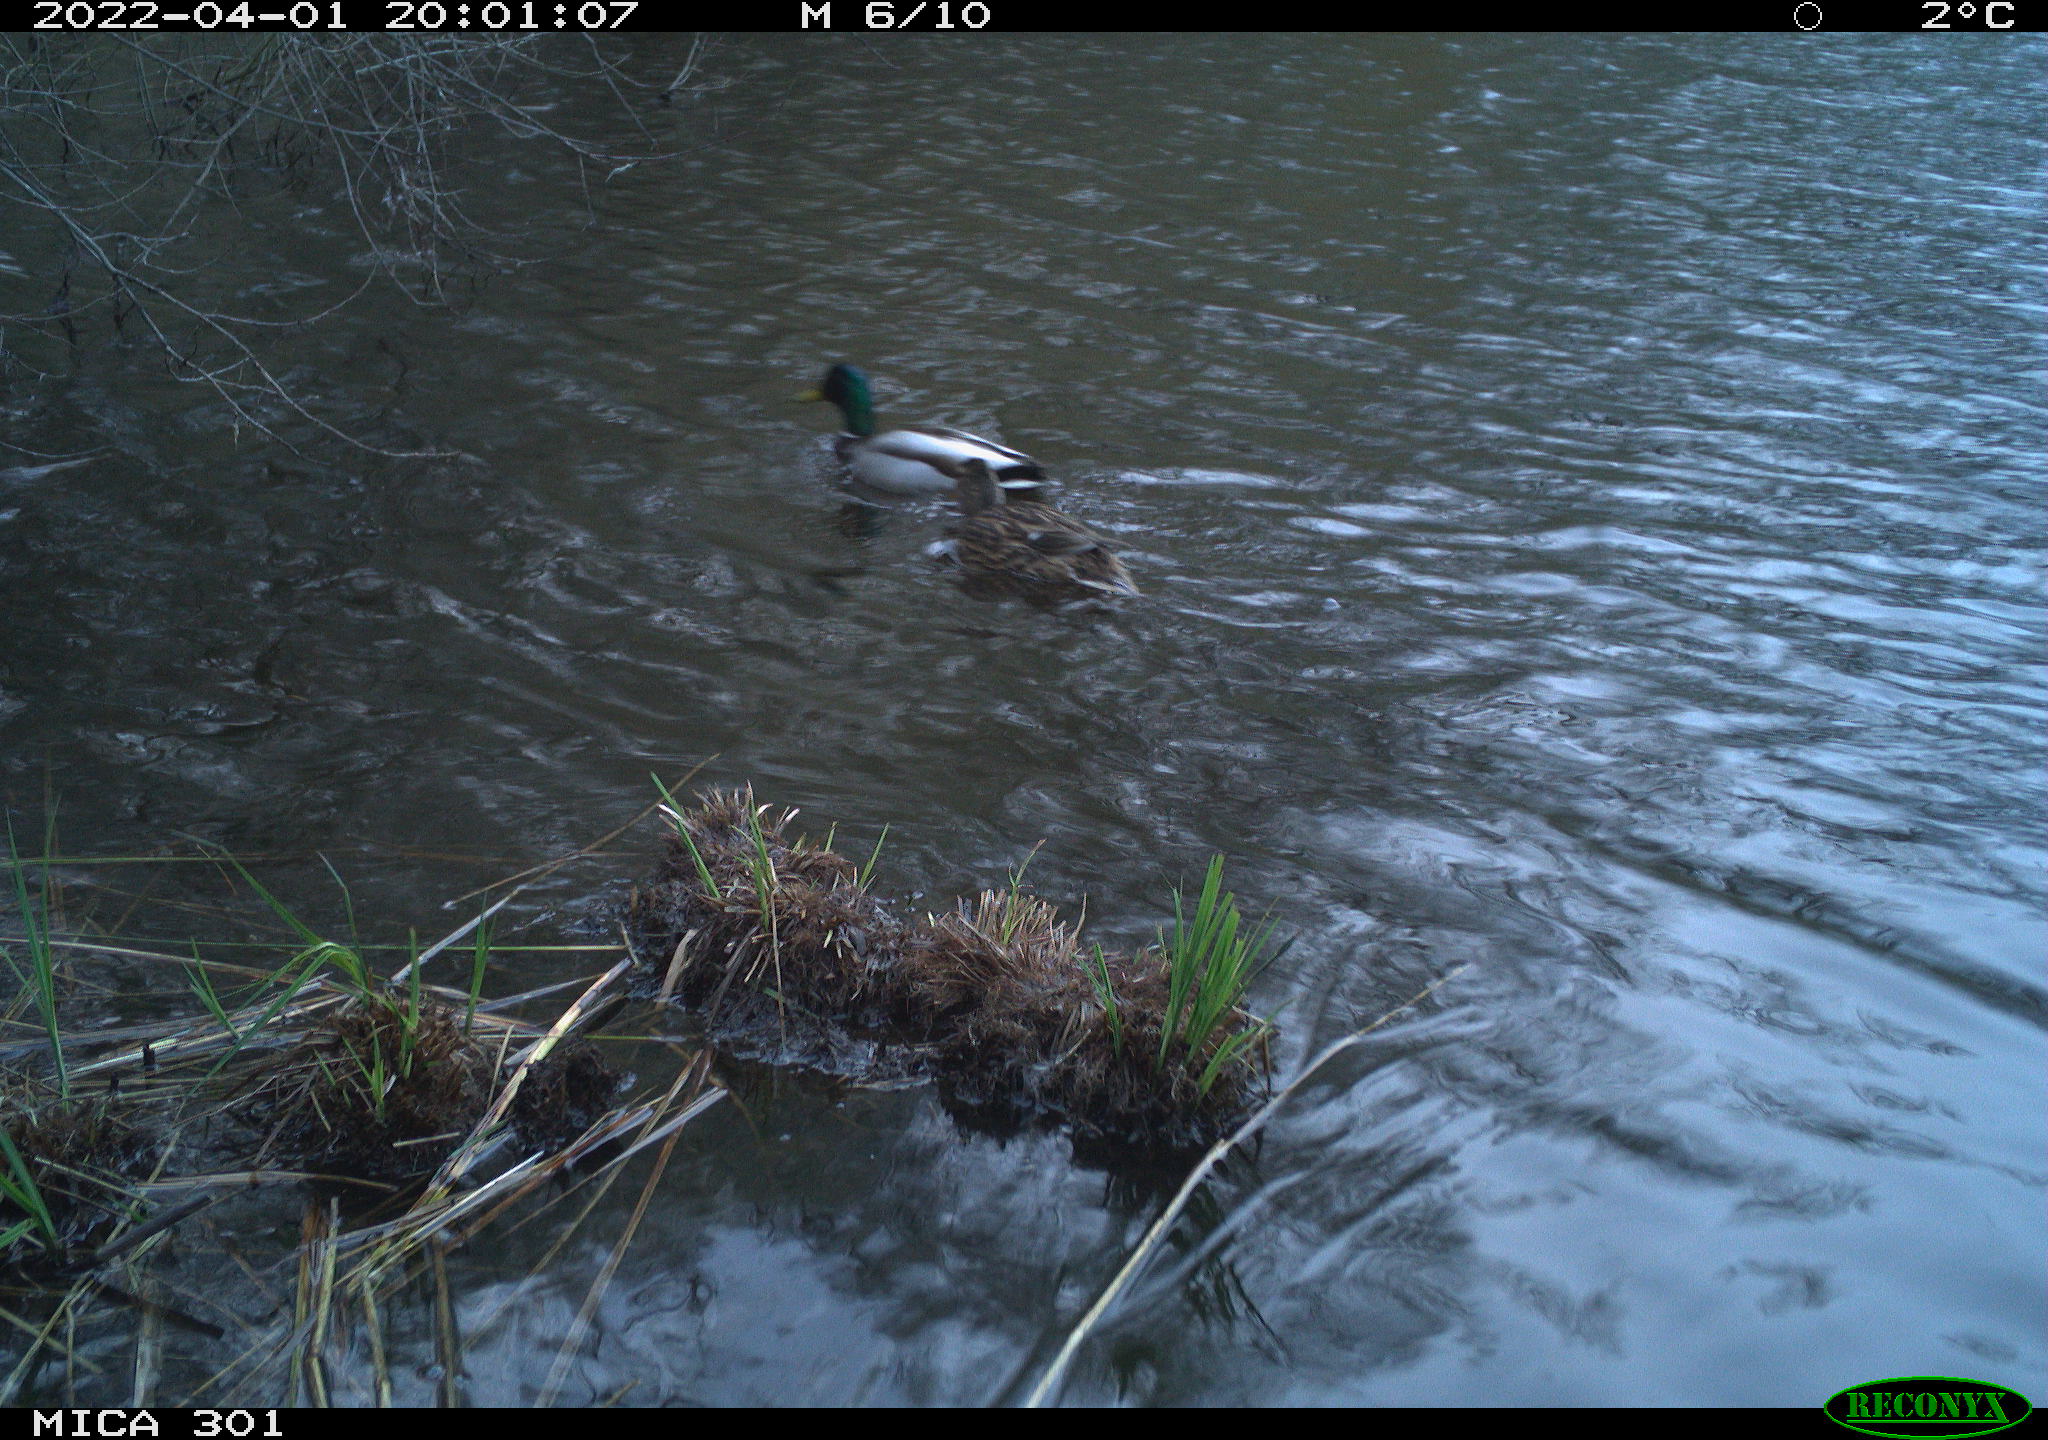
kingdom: Animalia
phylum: Chordata
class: Aves
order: Anseriformes
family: Anatidae
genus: Anas
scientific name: Anas platyrhynchos
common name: Mallard
